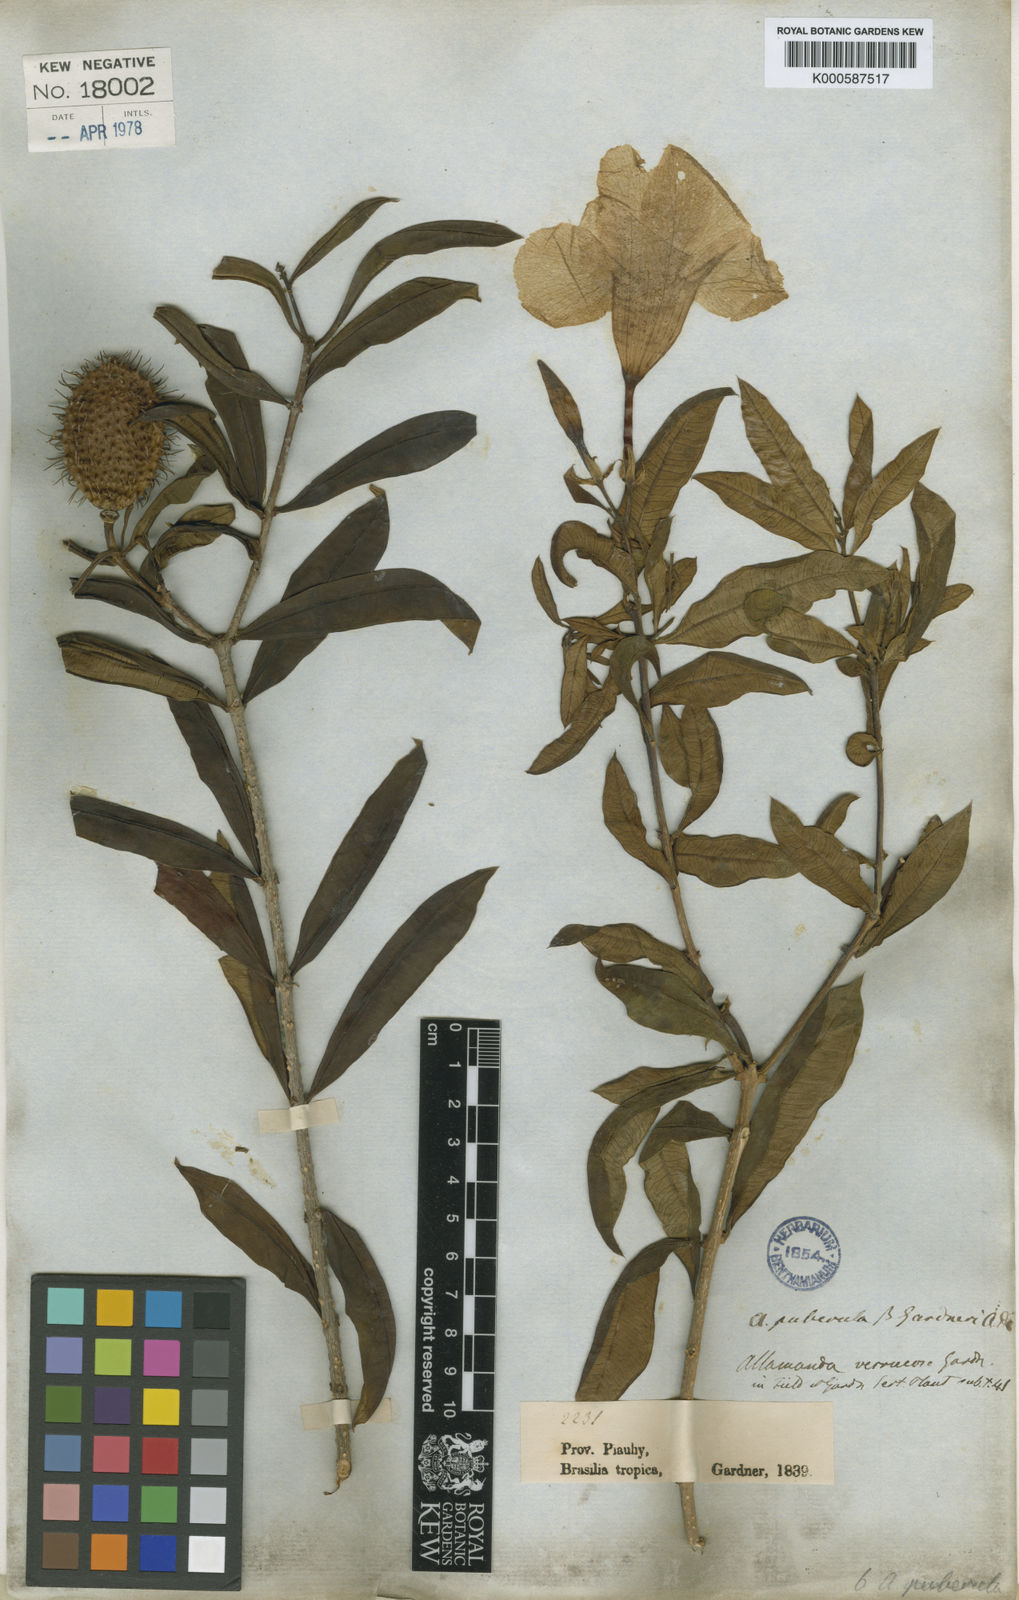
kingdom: Plantae
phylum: Tracheophyta
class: Magnoliopsida
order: Gentianales
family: Apocynaceae
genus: Allamanda
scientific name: Allamanda puberula
